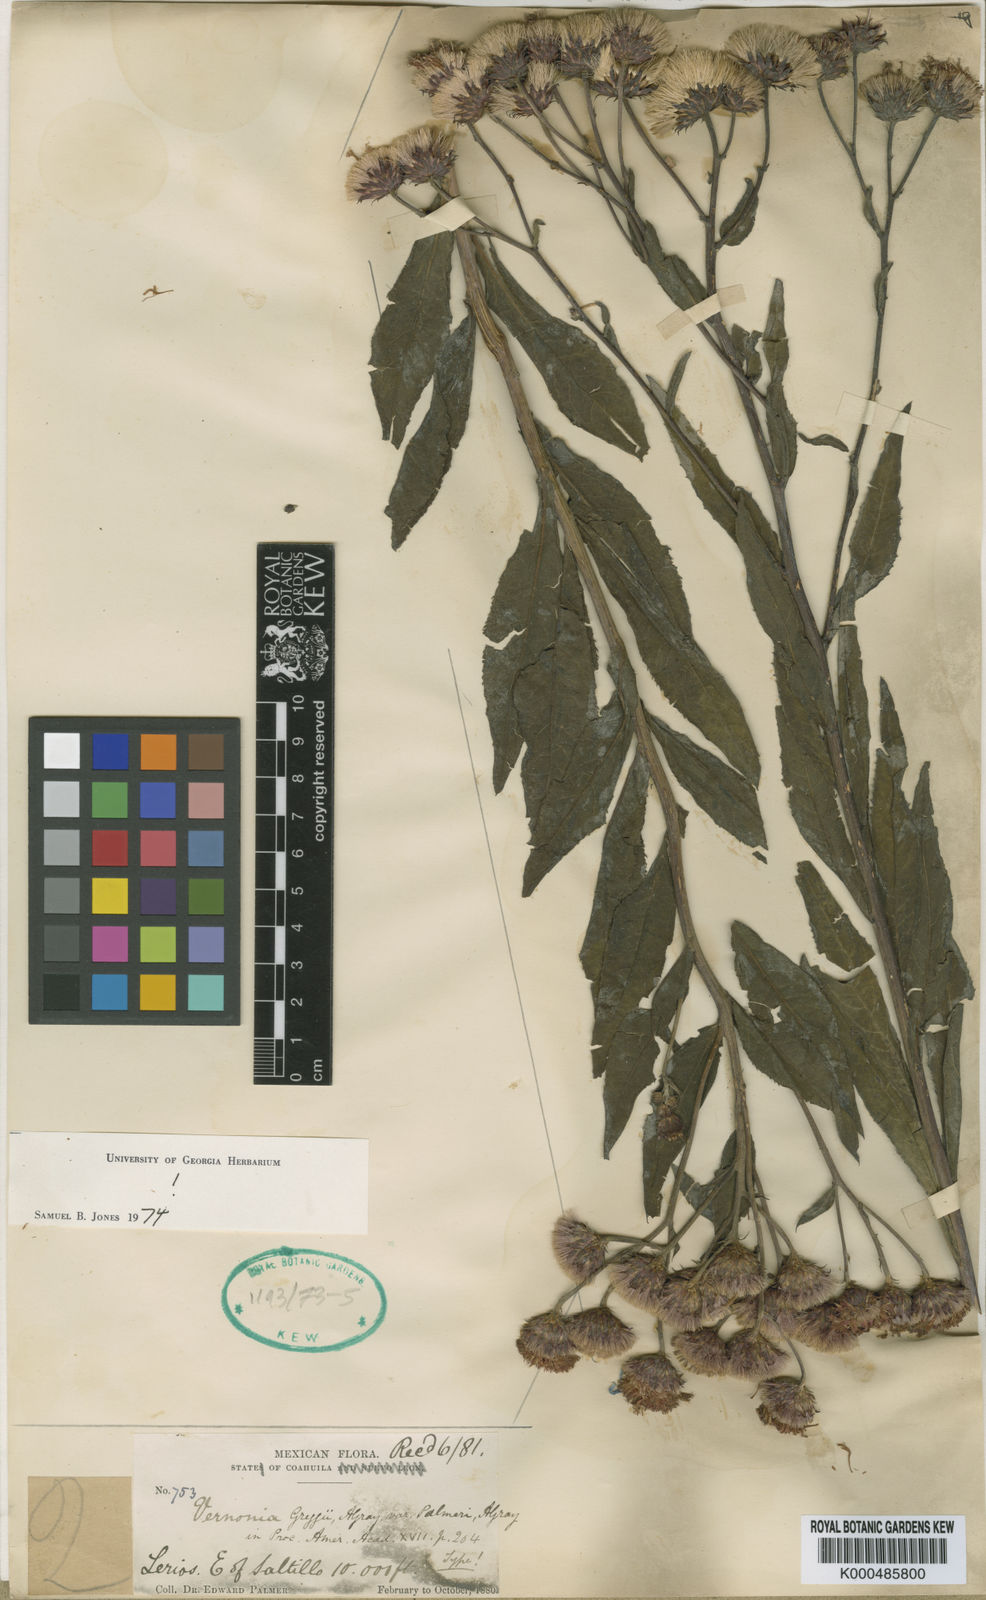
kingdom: Plantae
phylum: Tracheophyta
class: Magnoliopsida
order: Asterales
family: Asteraceae
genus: Vernonia
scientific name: Vernonia greggii
